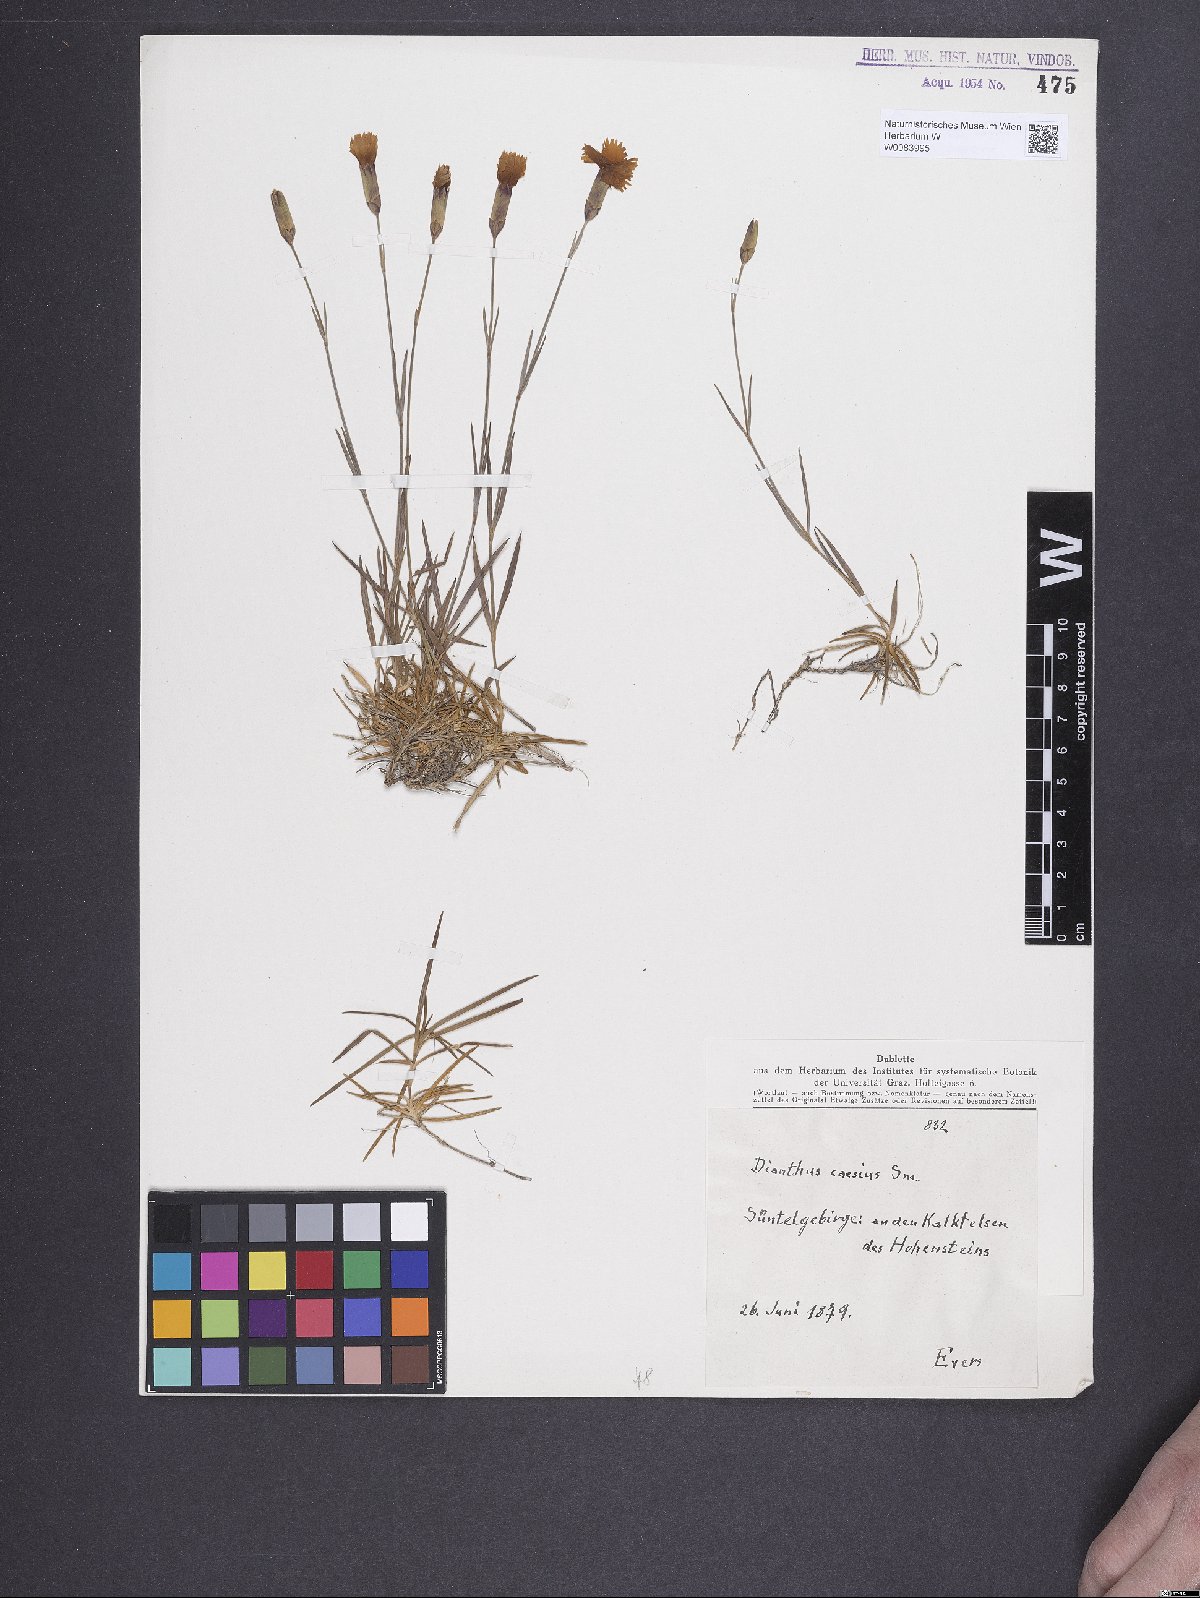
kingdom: Plantae
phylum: Tracheophyta
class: Magnoliopsida
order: Caryophyllales
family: Caryophyllaceae
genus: Dianthus
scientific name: Dianthus gratianopolitanus
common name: Cheddar pink
